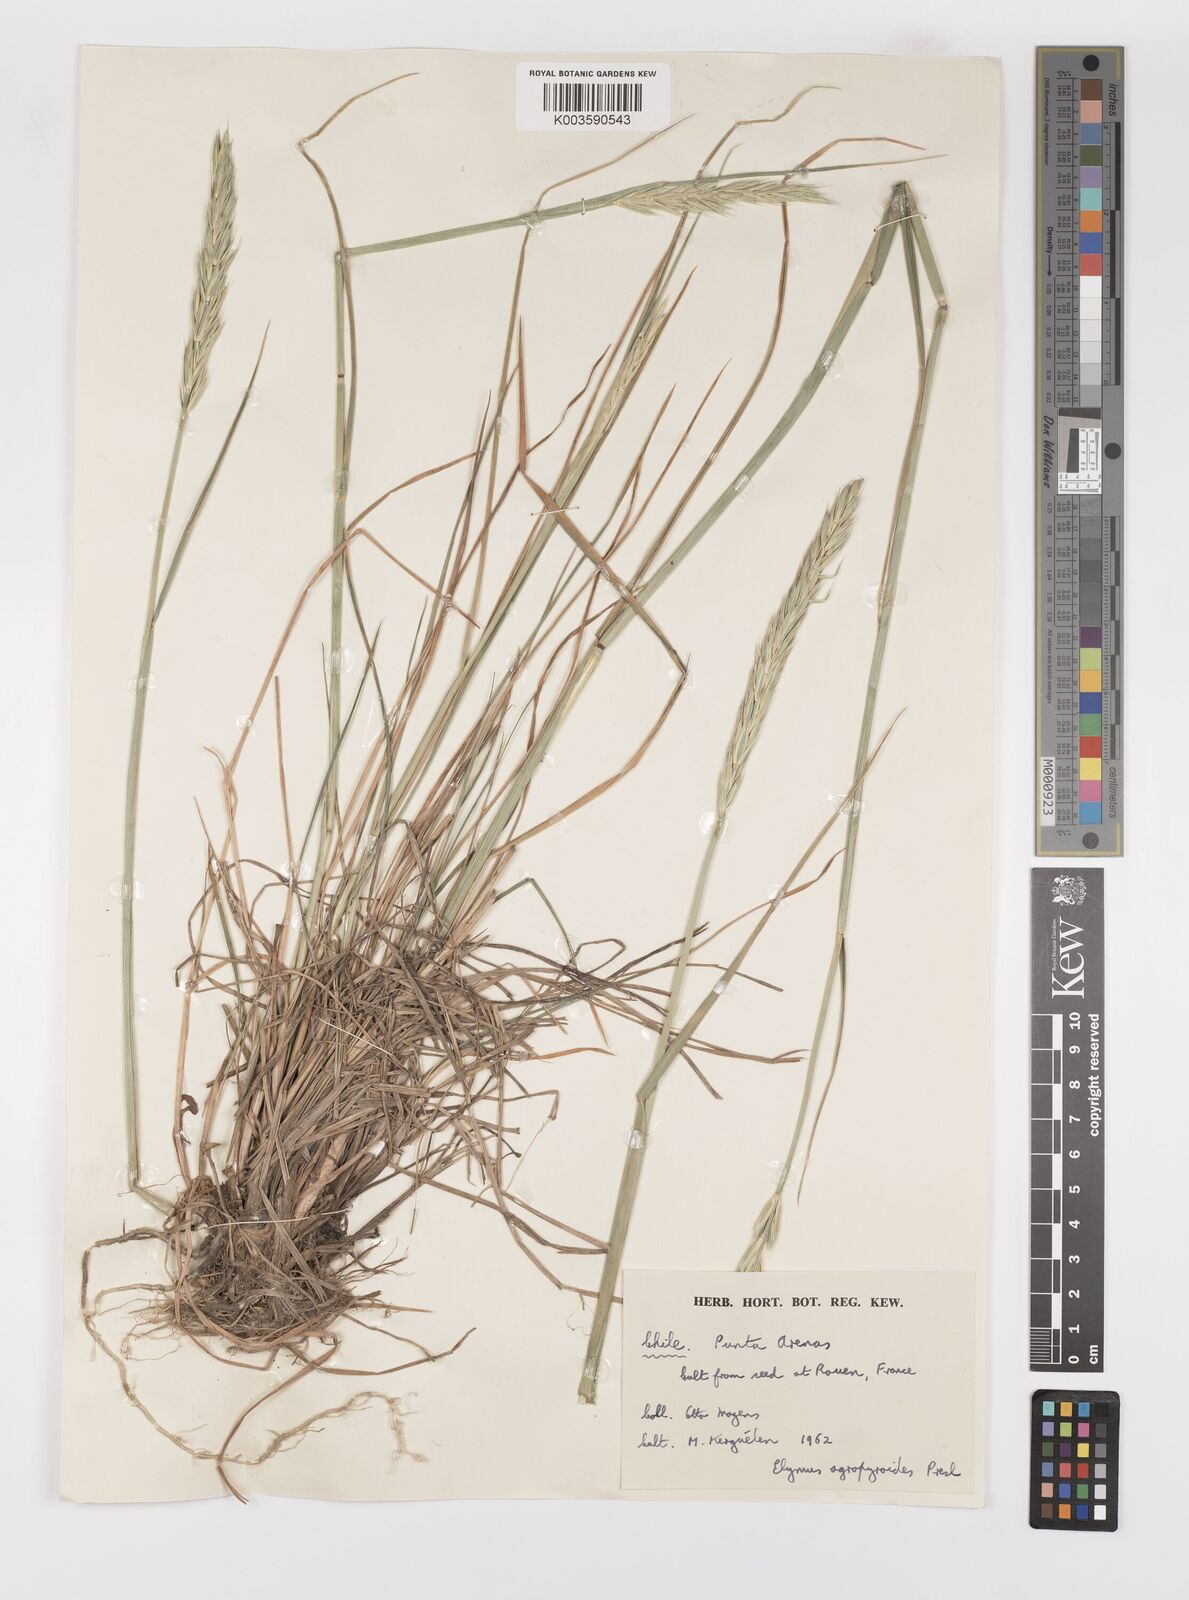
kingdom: Plantae
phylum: Tracheophyta
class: Liliopsida
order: Poales
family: Poaceae
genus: Elymus
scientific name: Elymus angulatus
